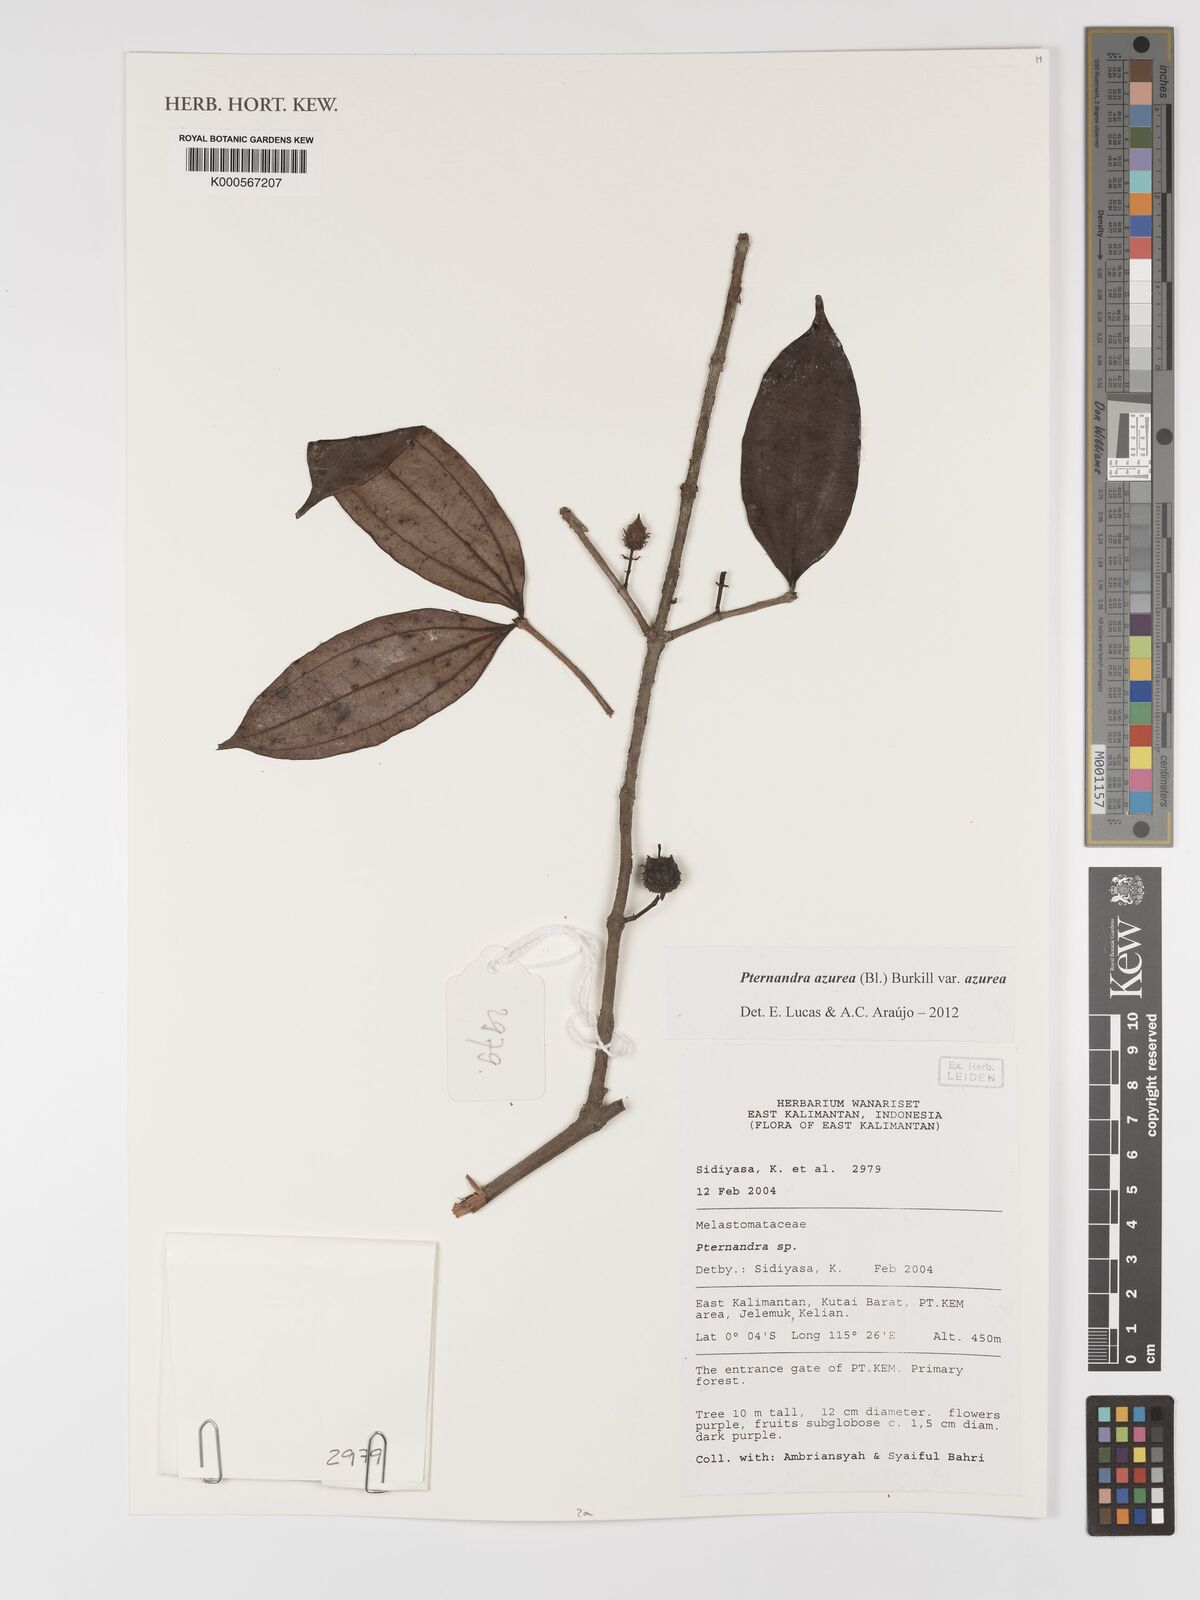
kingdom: Plantae
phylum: Tracheophyta
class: Magnoliopsida
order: Myrtales
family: Melastomataceae
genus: Pternandra
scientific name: Pternandra azurea
